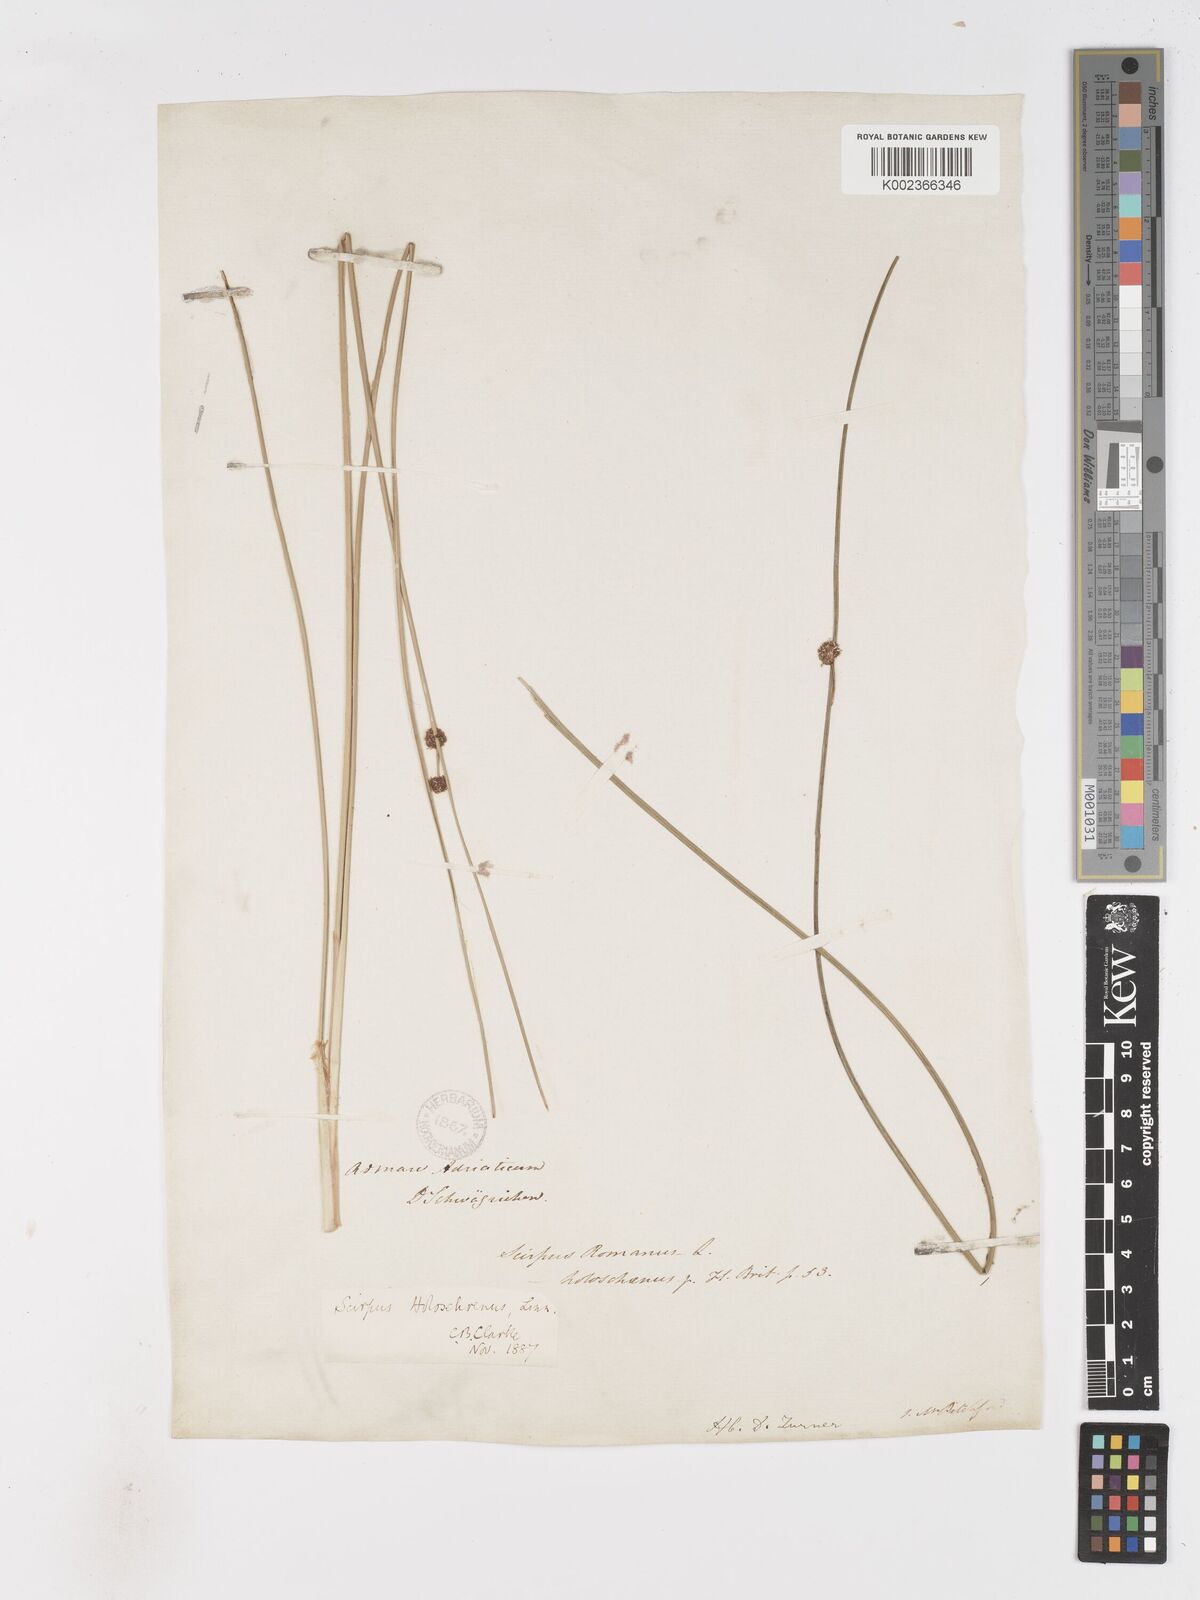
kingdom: Plantae
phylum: Tracheophyta
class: Liliopsida
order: Poales
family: Cyperaceae
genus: Scirpoides
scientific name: Scirpoides holoschoenus
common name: Round-headed club-rush
